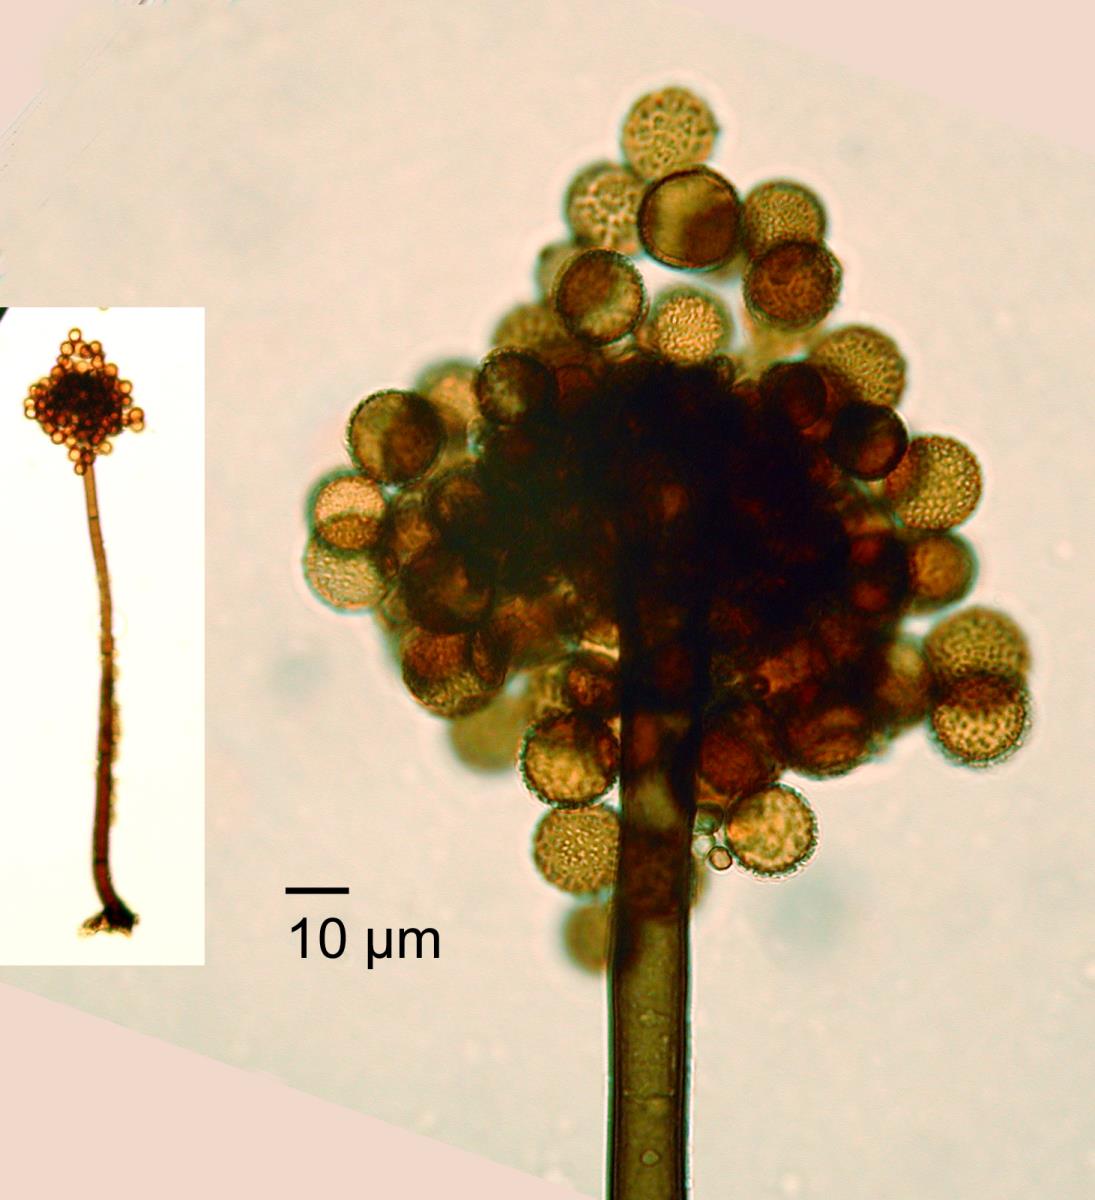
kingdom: Fungi
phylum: Ascomycota
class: Dothideomycetes
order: Pleosporales
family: Periconiaceae
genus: Periconia
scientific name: Periconia byssoides
